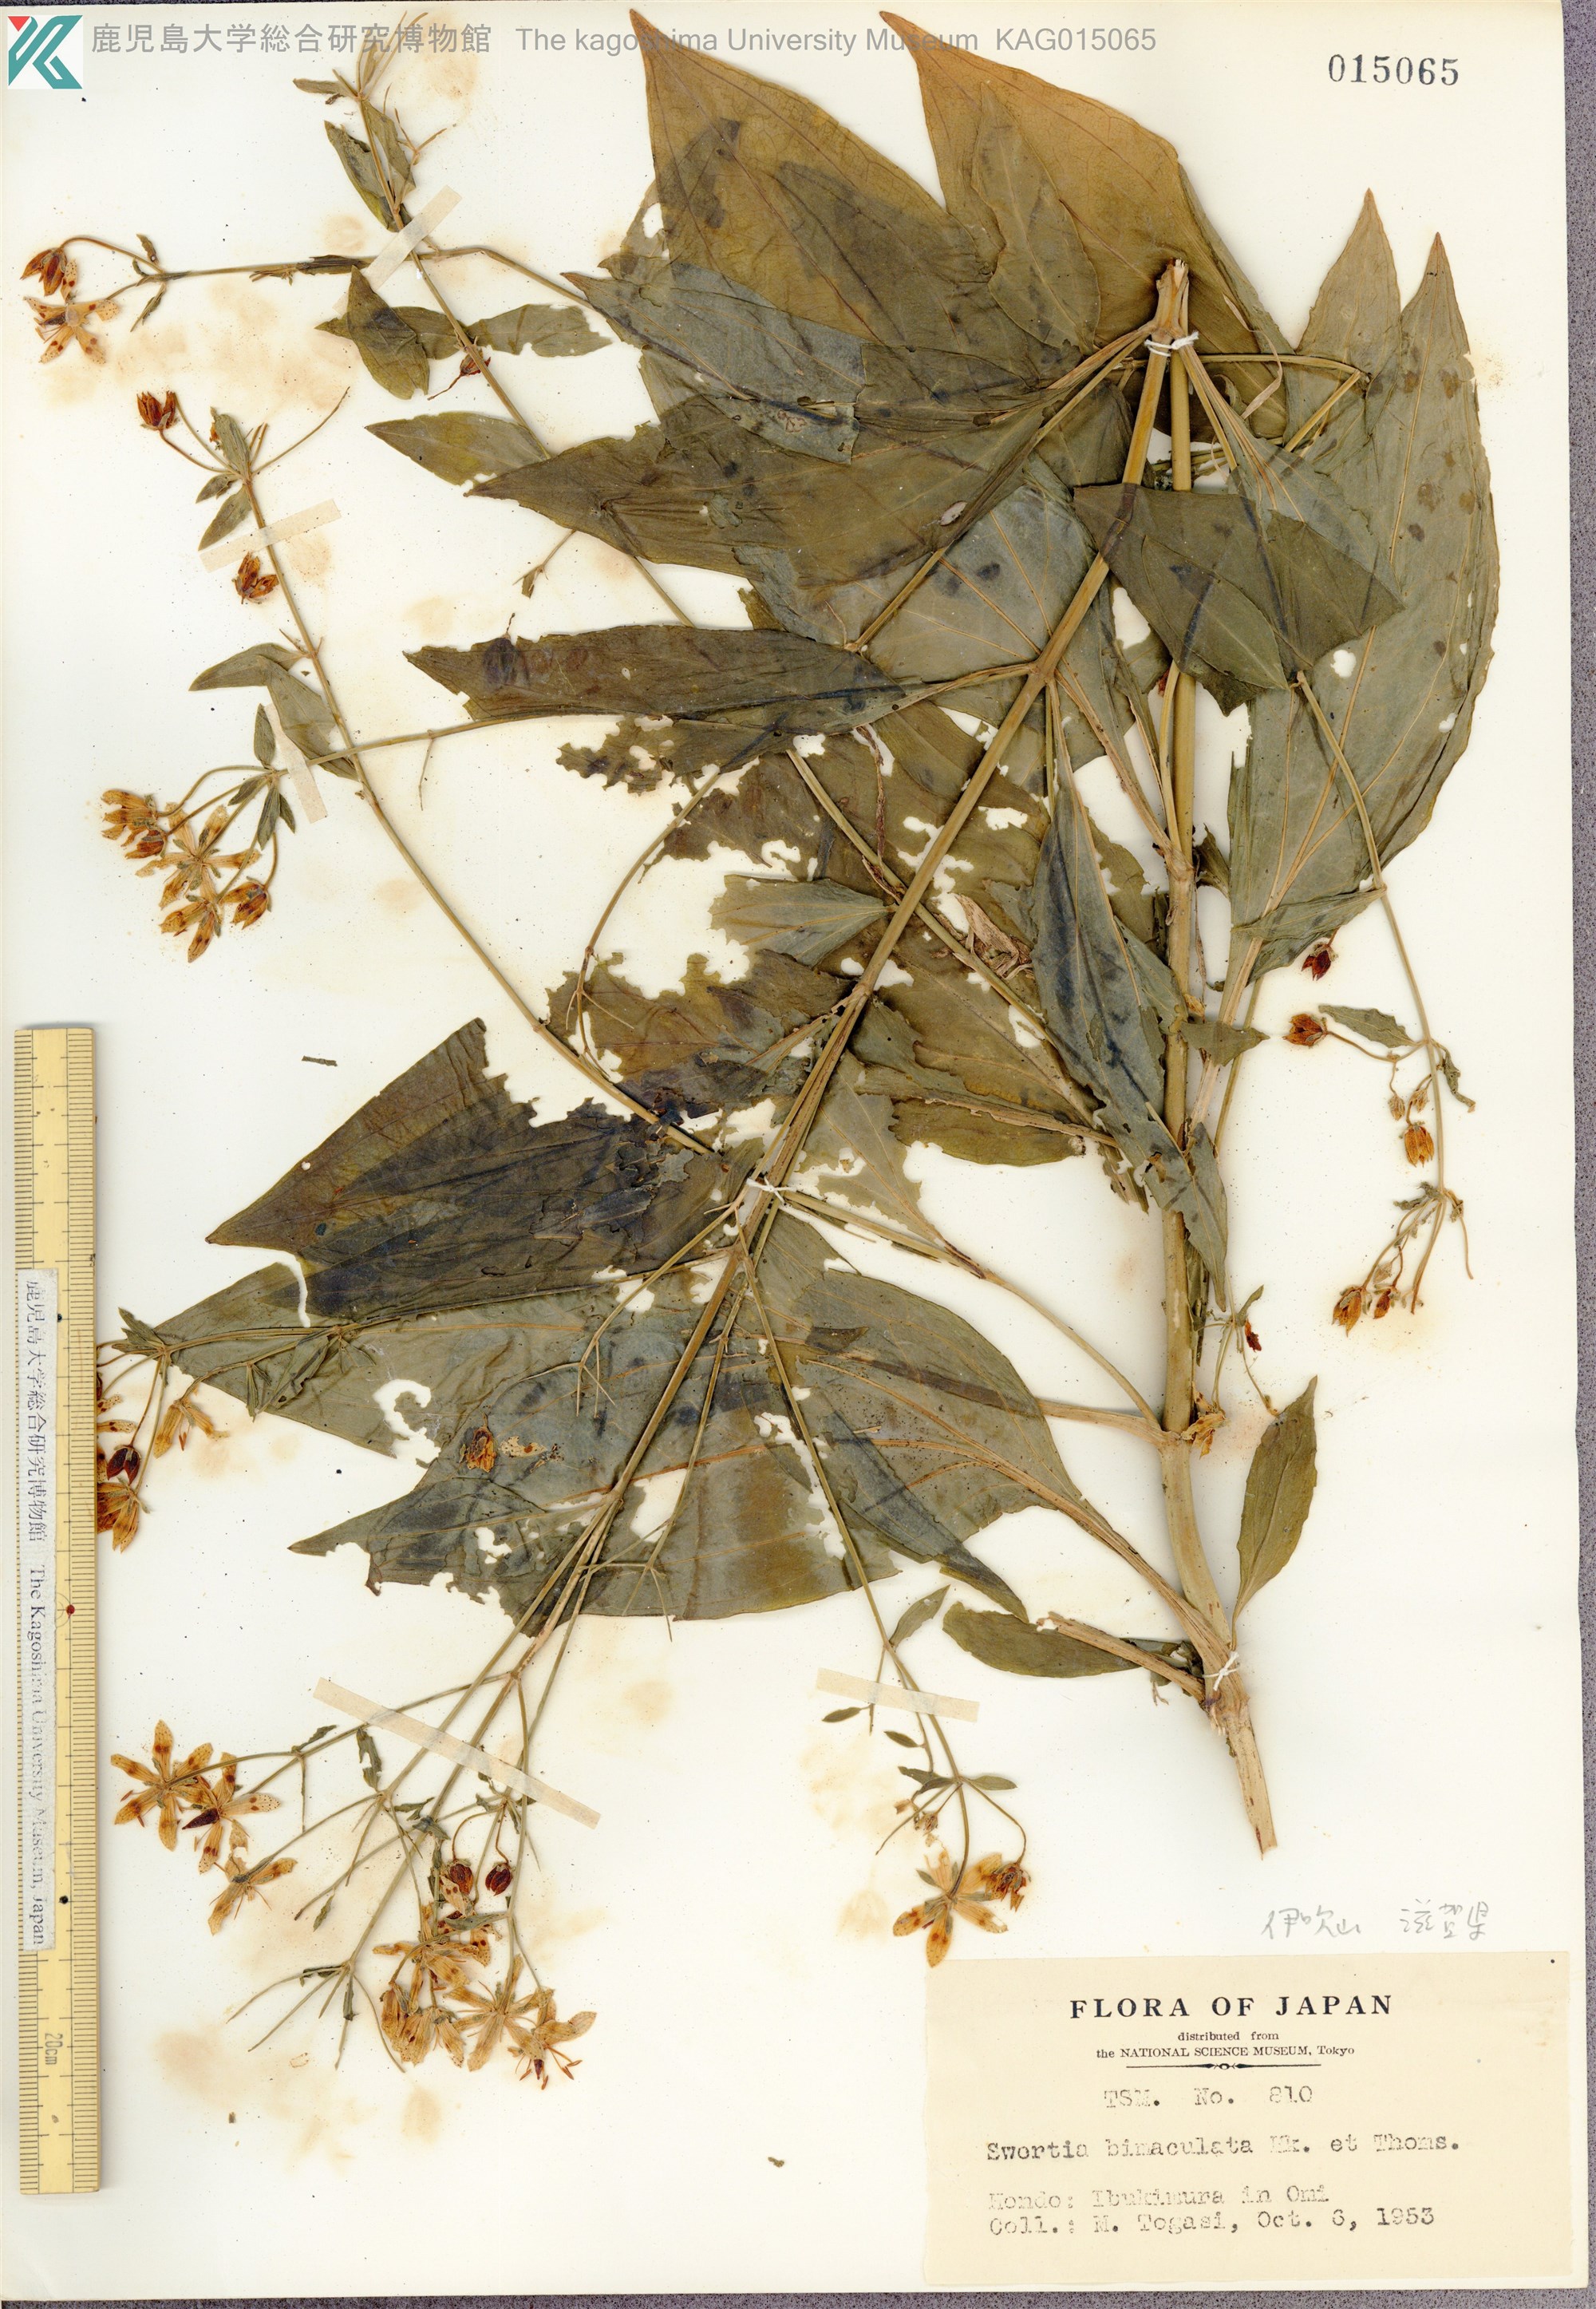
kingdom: Plantae
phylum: Tracheophyta
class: Magnoliopsida
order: Gentianales
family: Gentianaceae
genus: Swertia
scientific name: Swertia bimaculata
